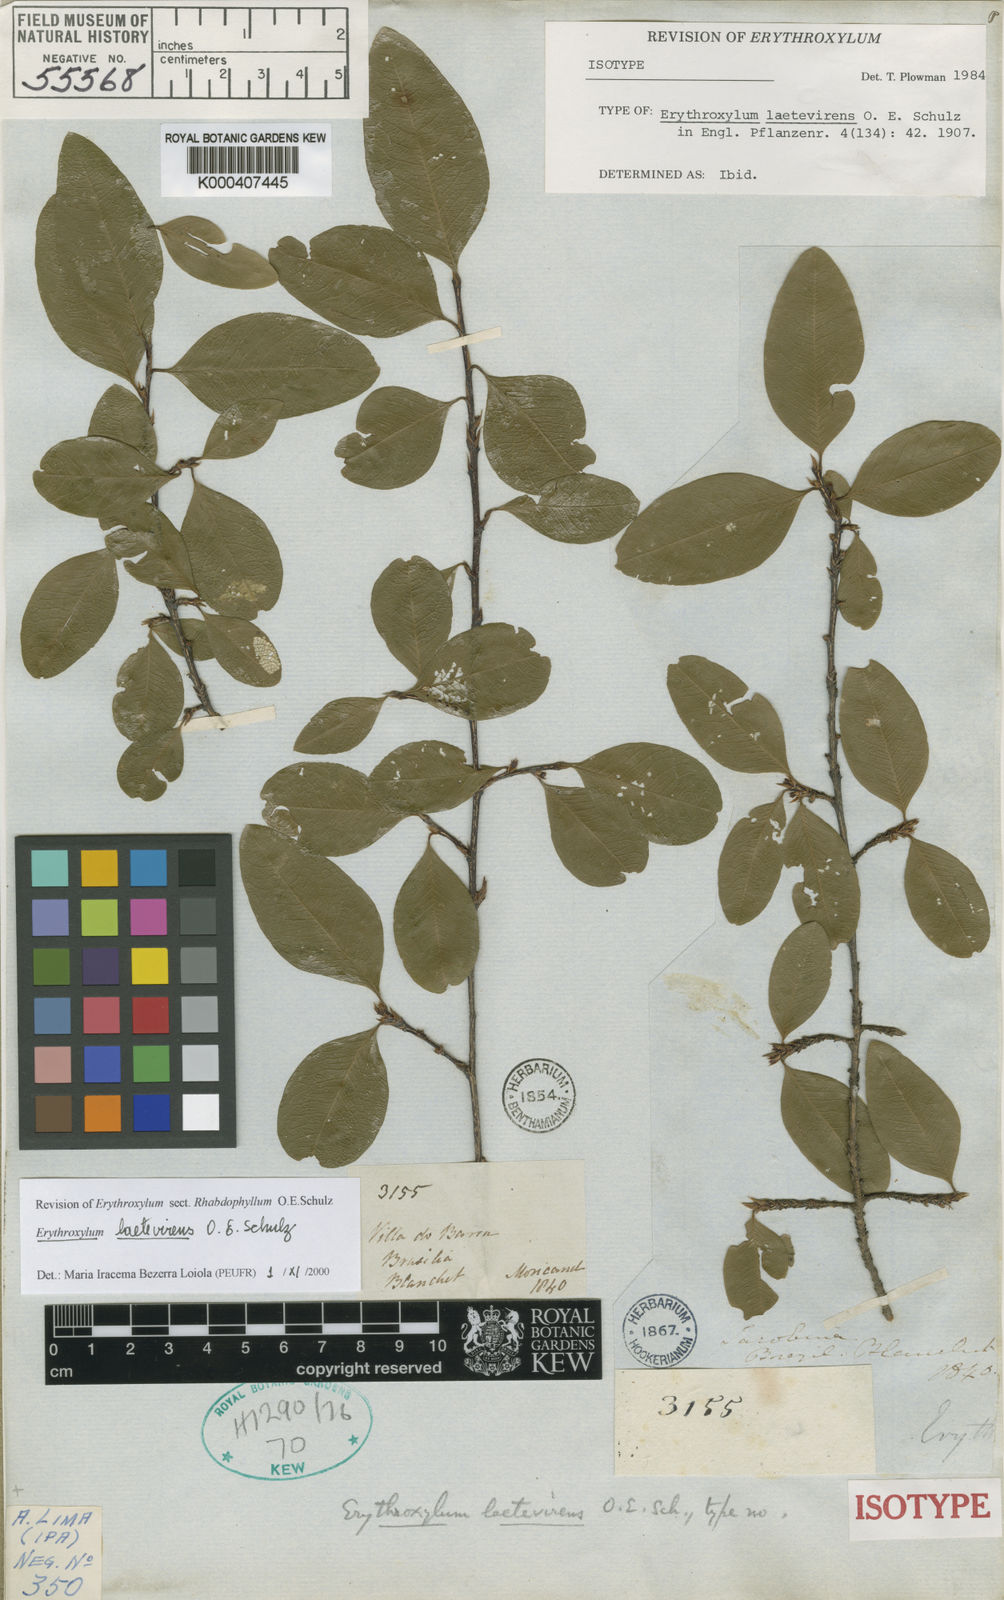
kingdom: Plantae
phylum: Tracheophyta
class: Magnoliopsida
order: Malpighiales
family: Erythroxylaceae
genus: Erythroxylum
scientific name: Erythroxylum laetevirens
